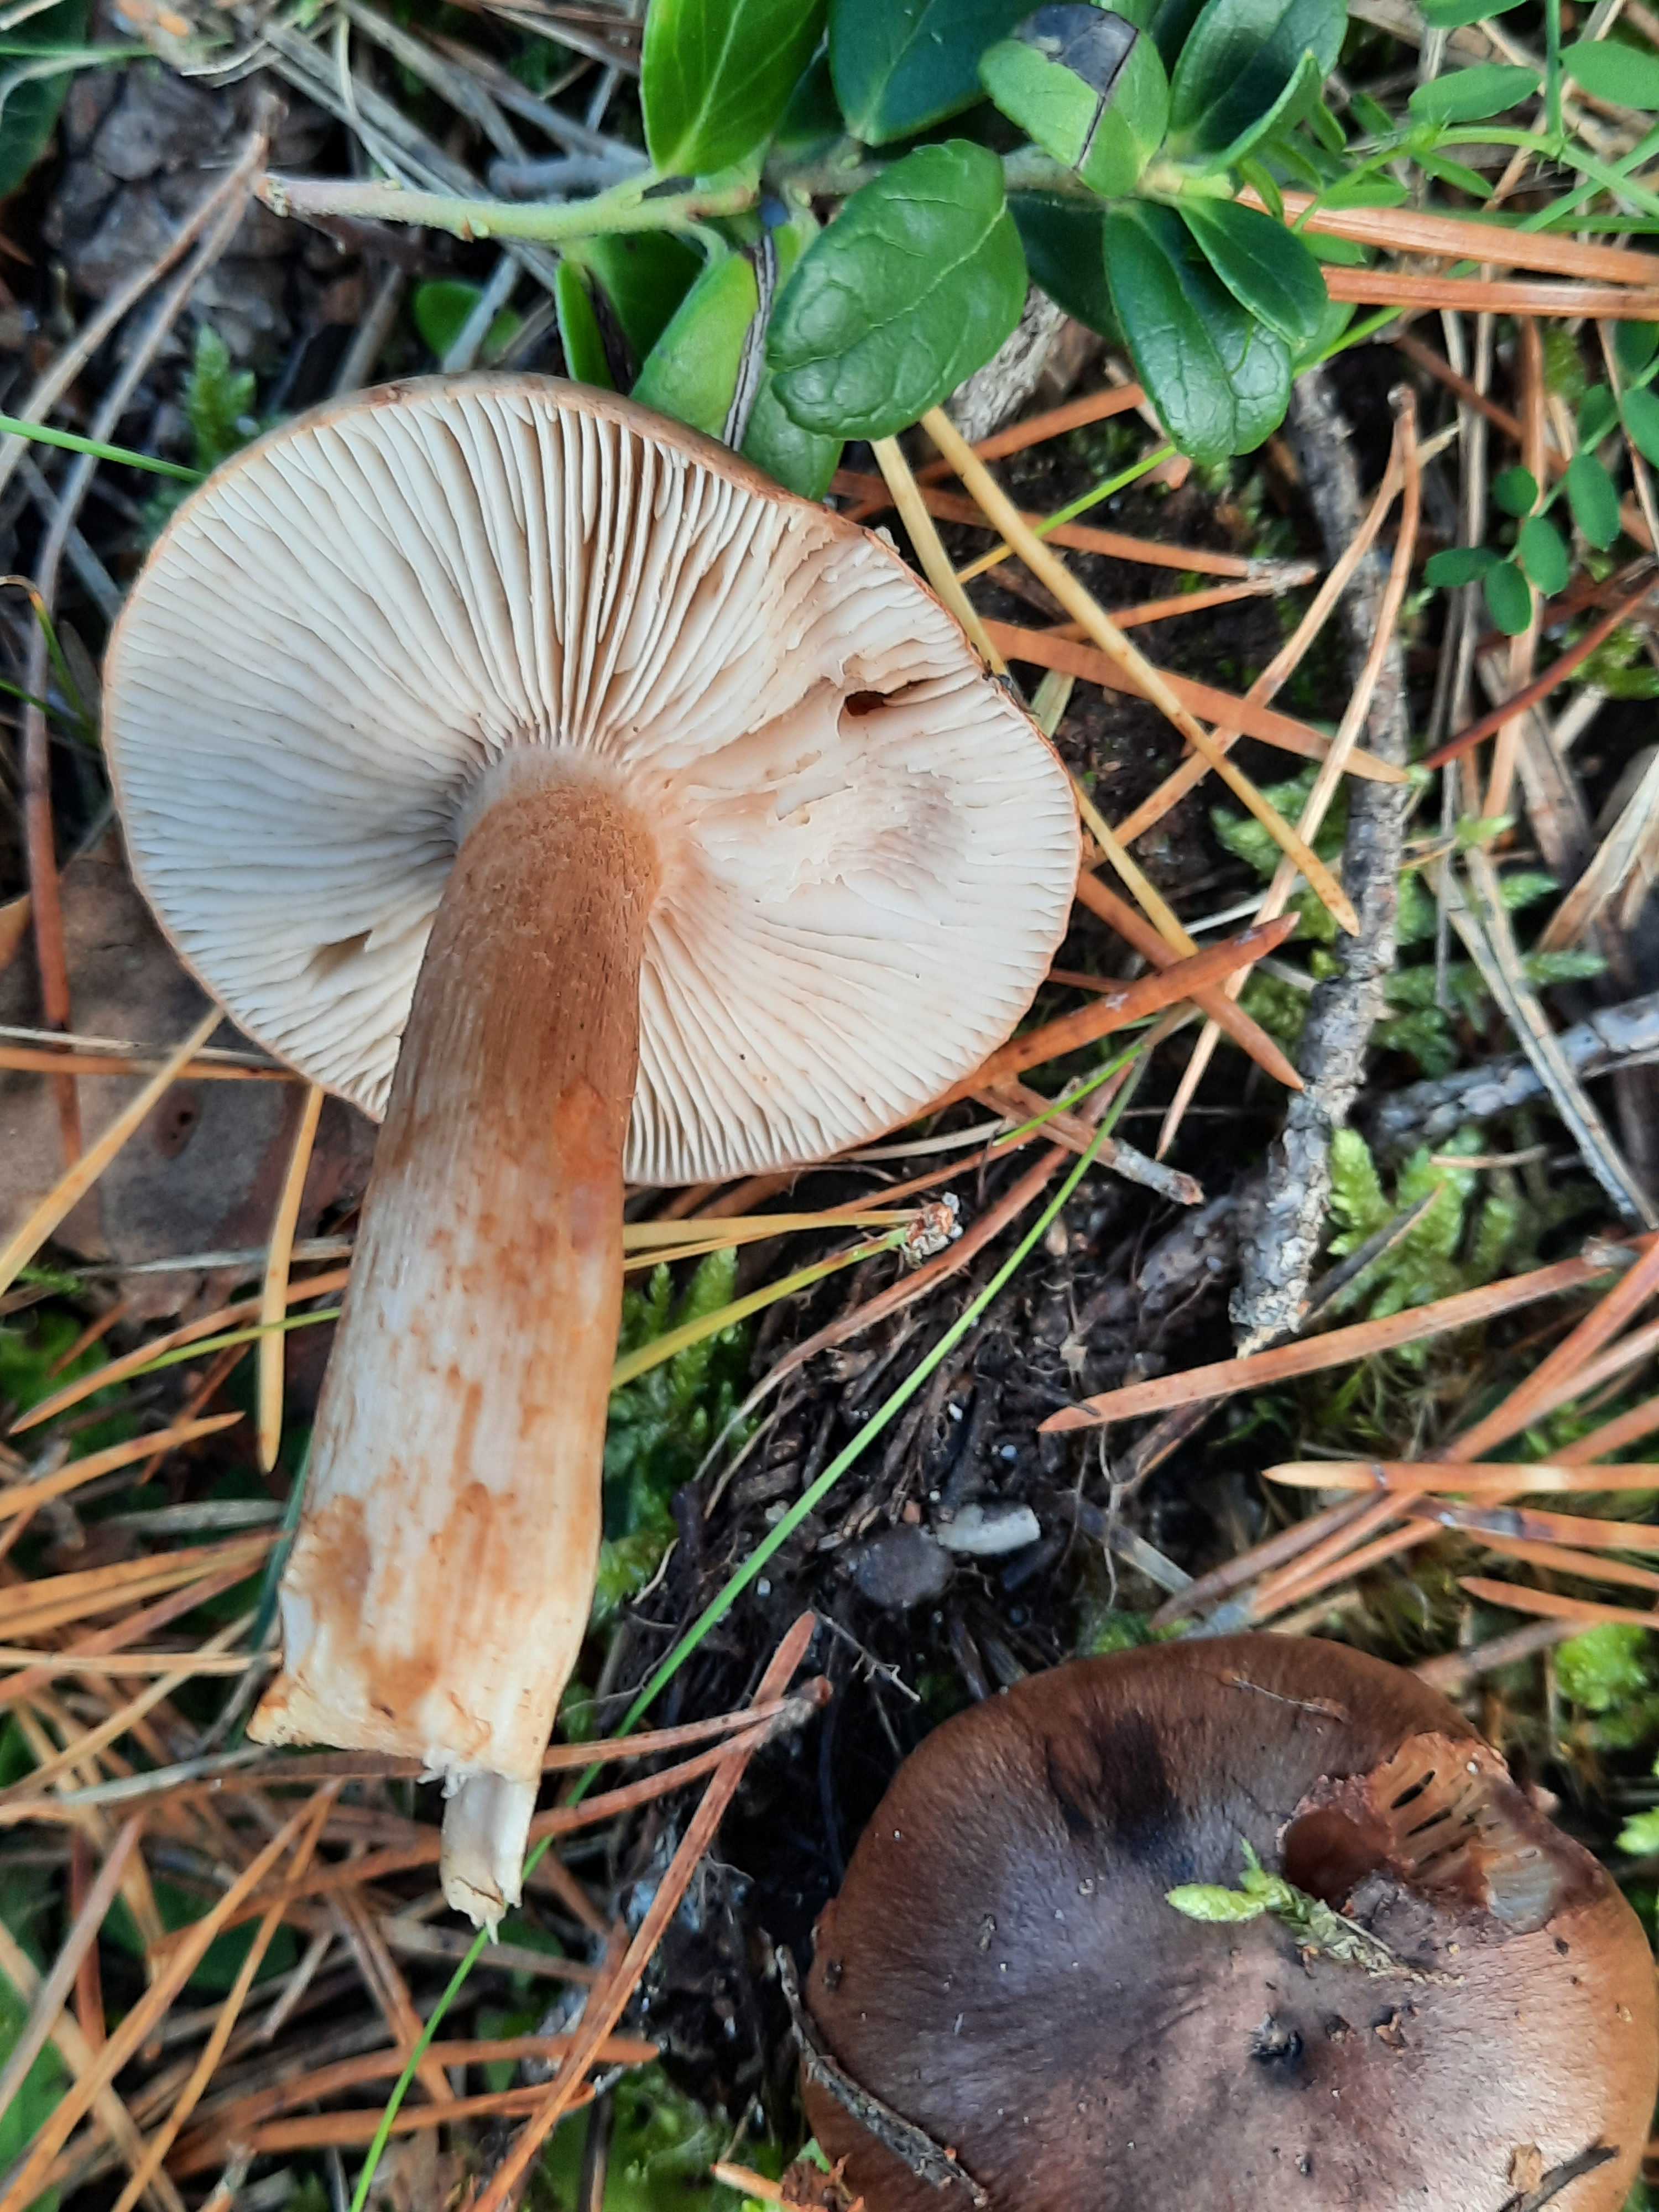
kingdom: Fungi
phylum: Basidiomycota
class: Agaricomycetes
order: Agaricales
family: Tricholomataceae
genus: Tricholoma
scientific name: Tricholoma albobrunneum
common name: kastanie-ridderhat
